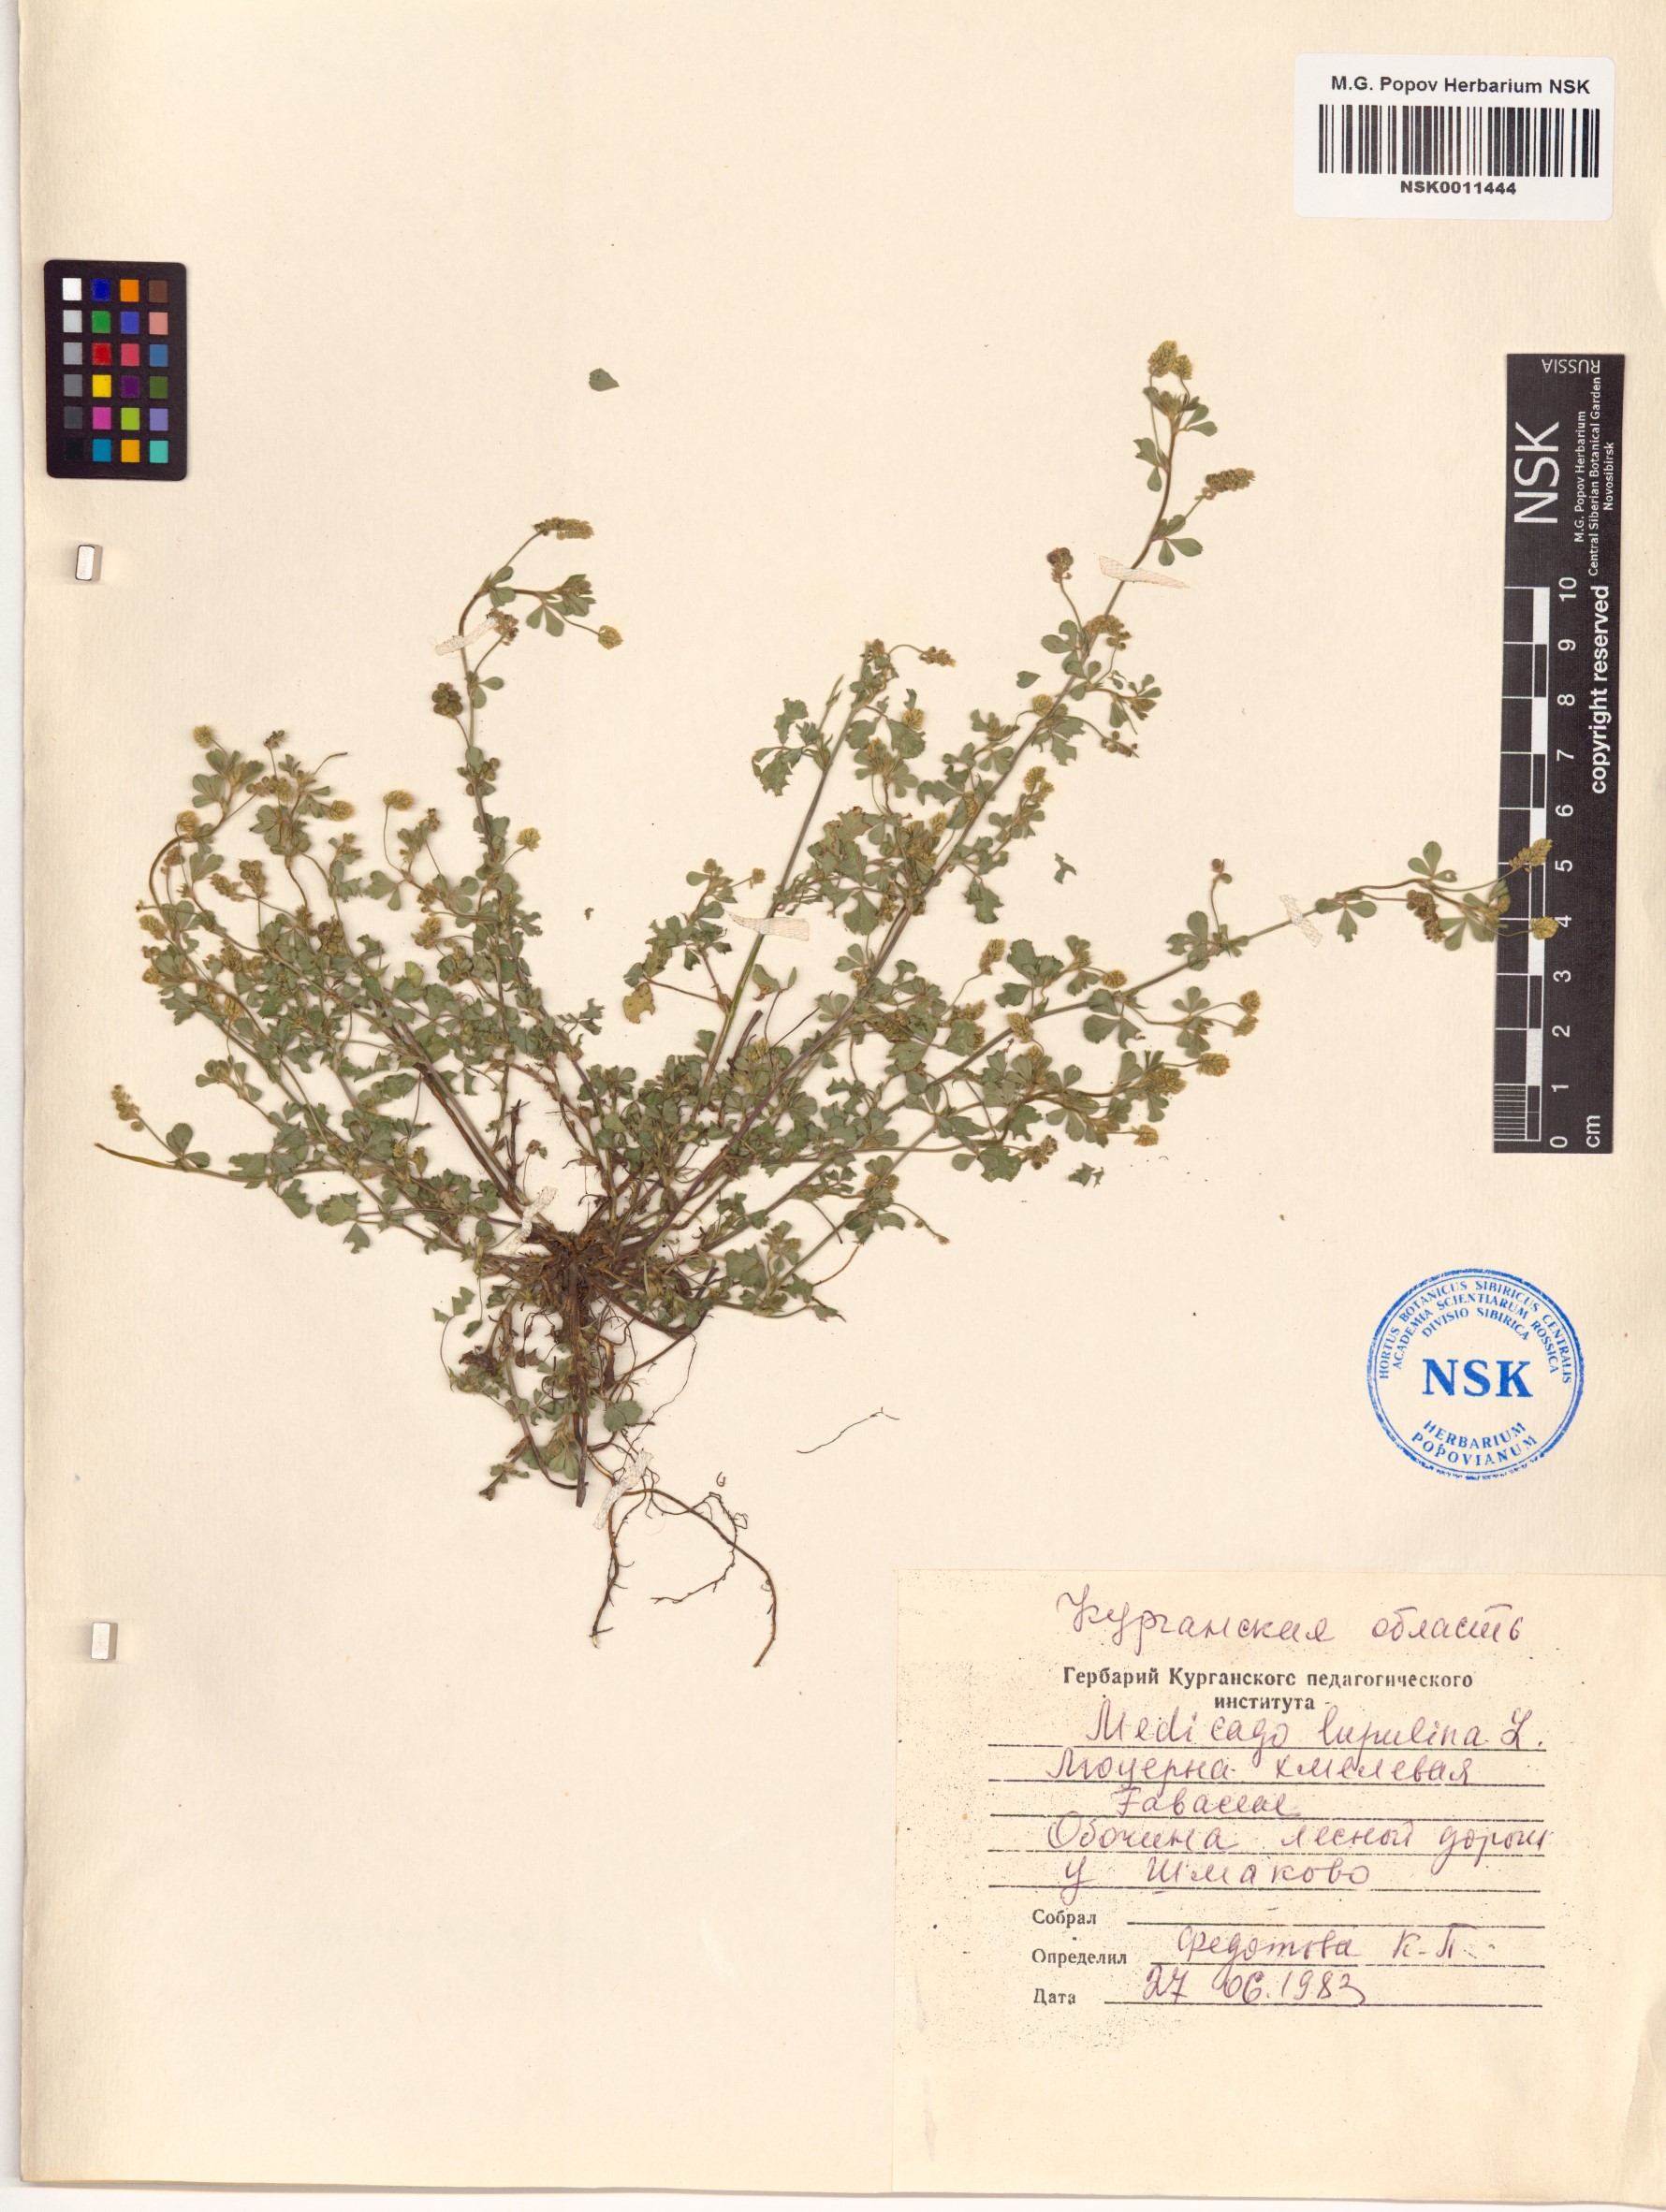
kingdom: Plantae
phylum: Tracheophyta
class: Magnoliopsida
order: Fabales
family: Fabaceae
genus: Medicago
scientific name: Medicago lupulina
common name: Black medick
